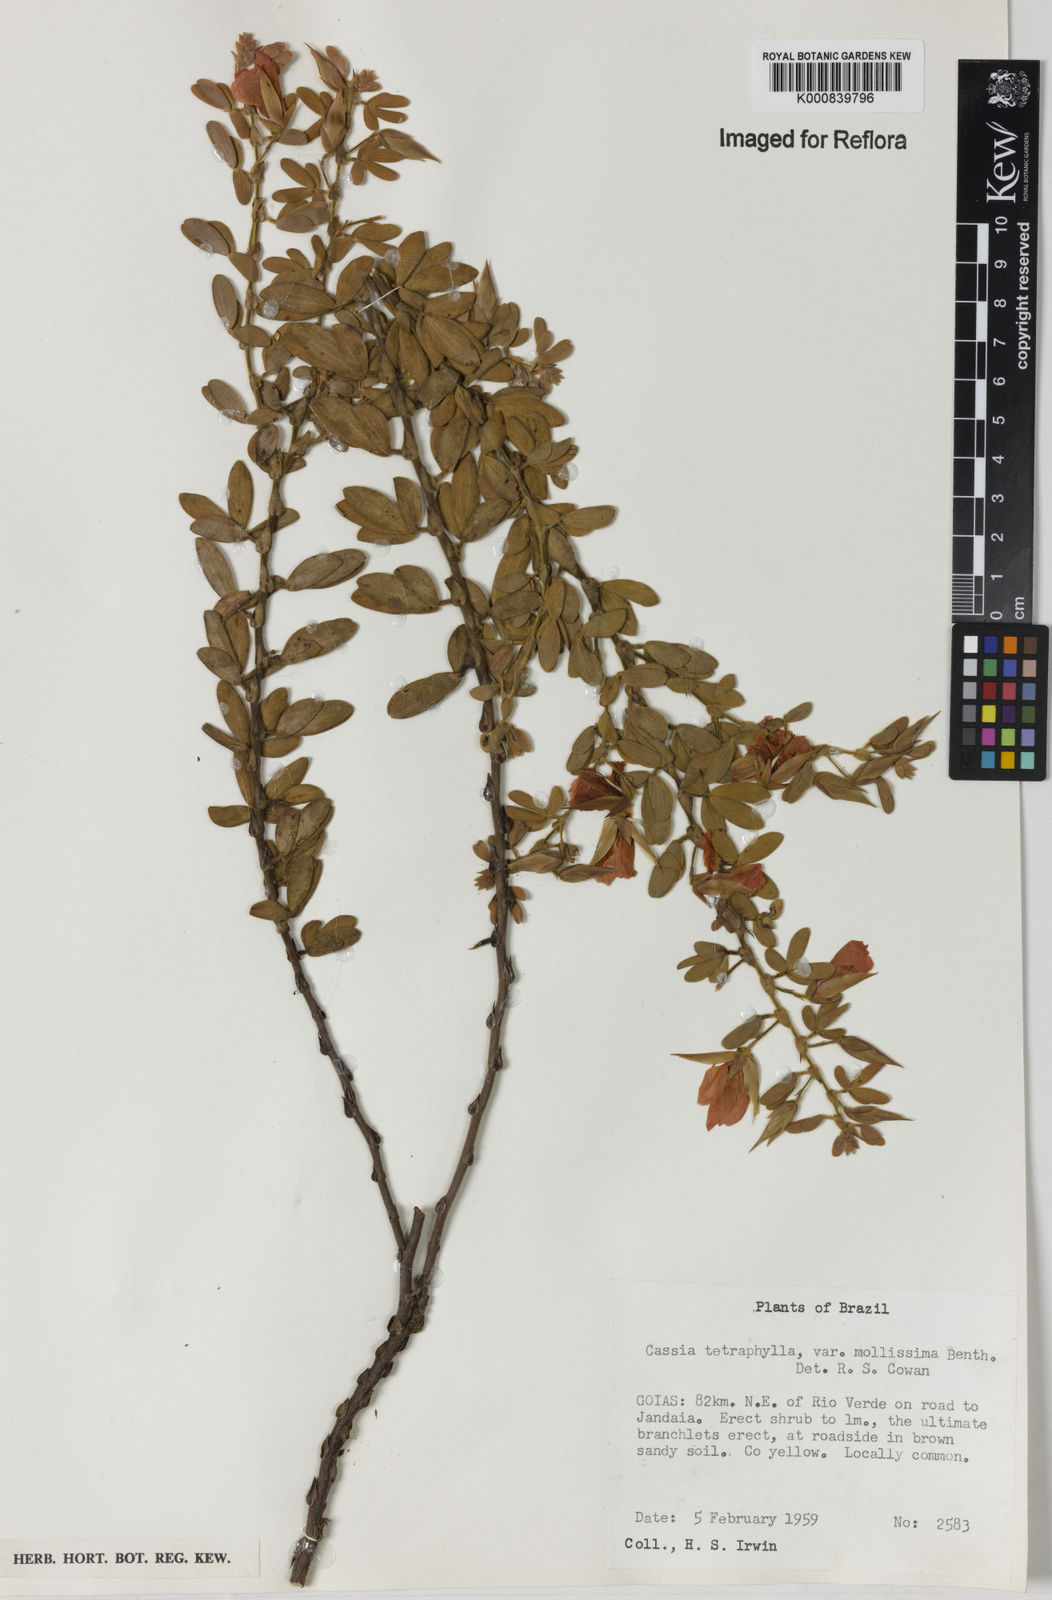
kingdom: Plantae
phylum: Tracheophyta
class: Magnoliopsida
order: Fabales
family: Fabaceae
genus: Chamaecrista
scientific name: Chamaecrista
